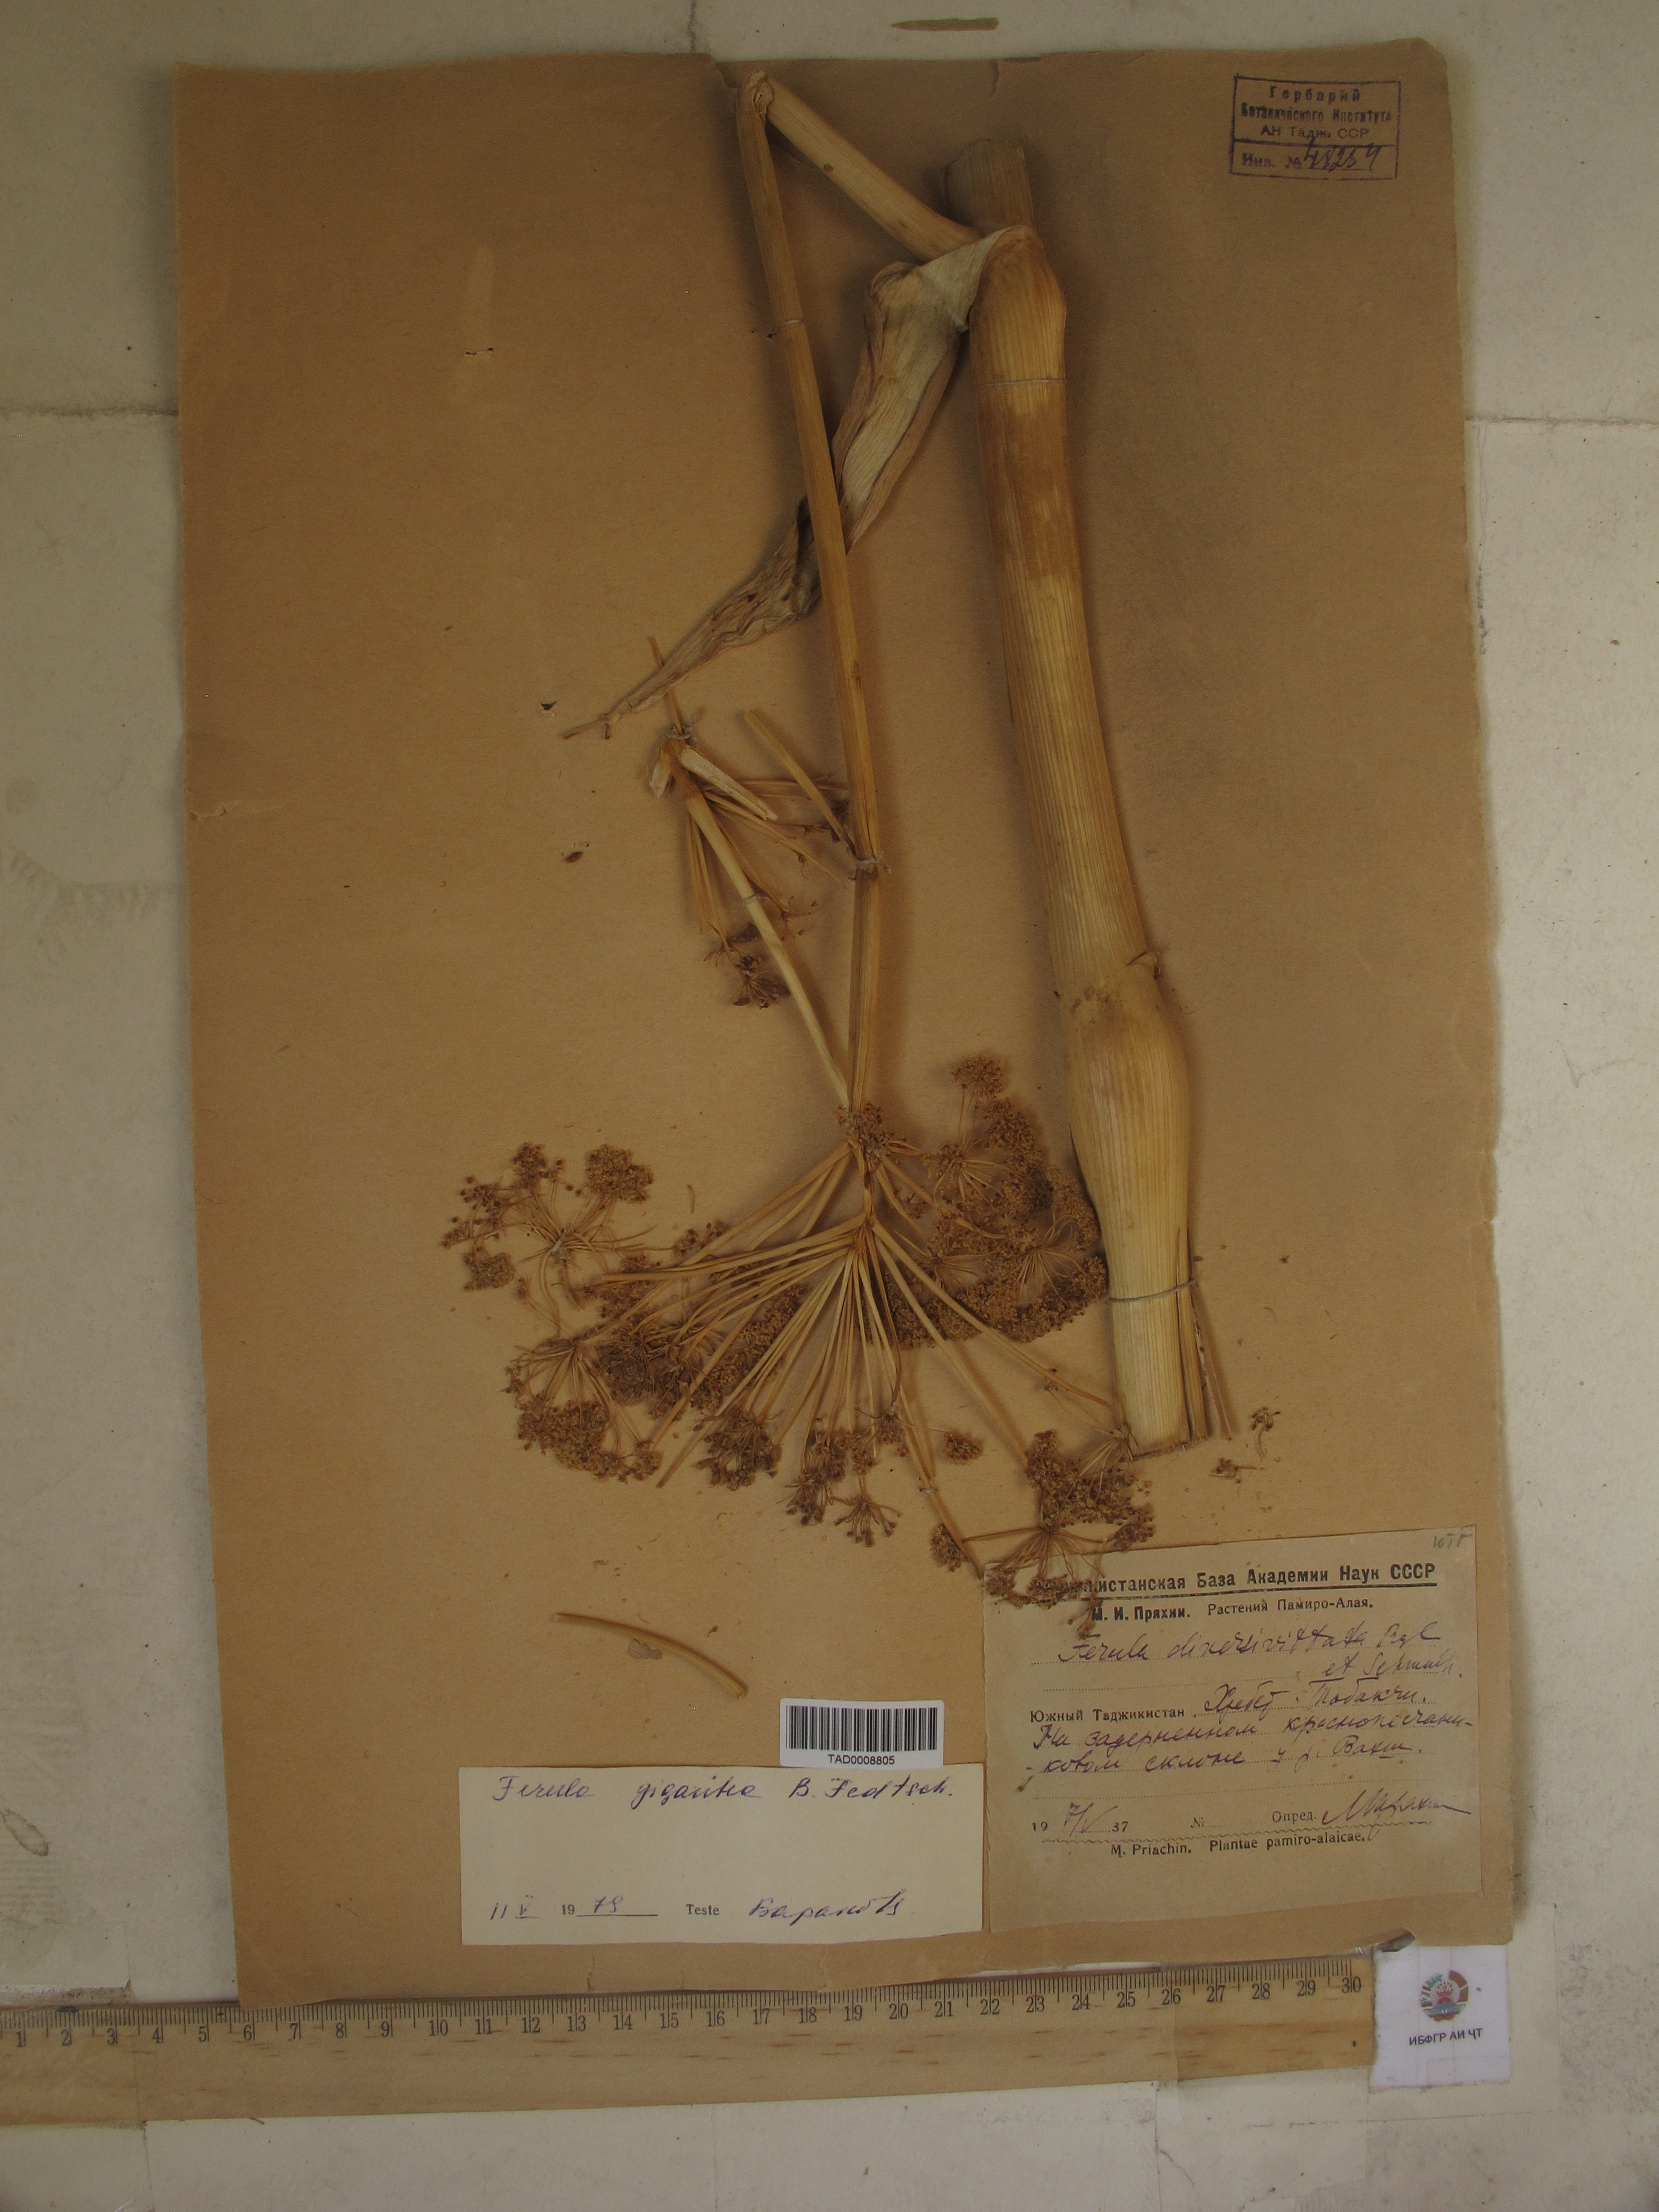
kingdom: Plantae
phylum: Tracheophyta
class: Magnoliopsida
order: Apiales
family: Apiaceae
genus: Ferula
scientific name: Ferula gigantea
